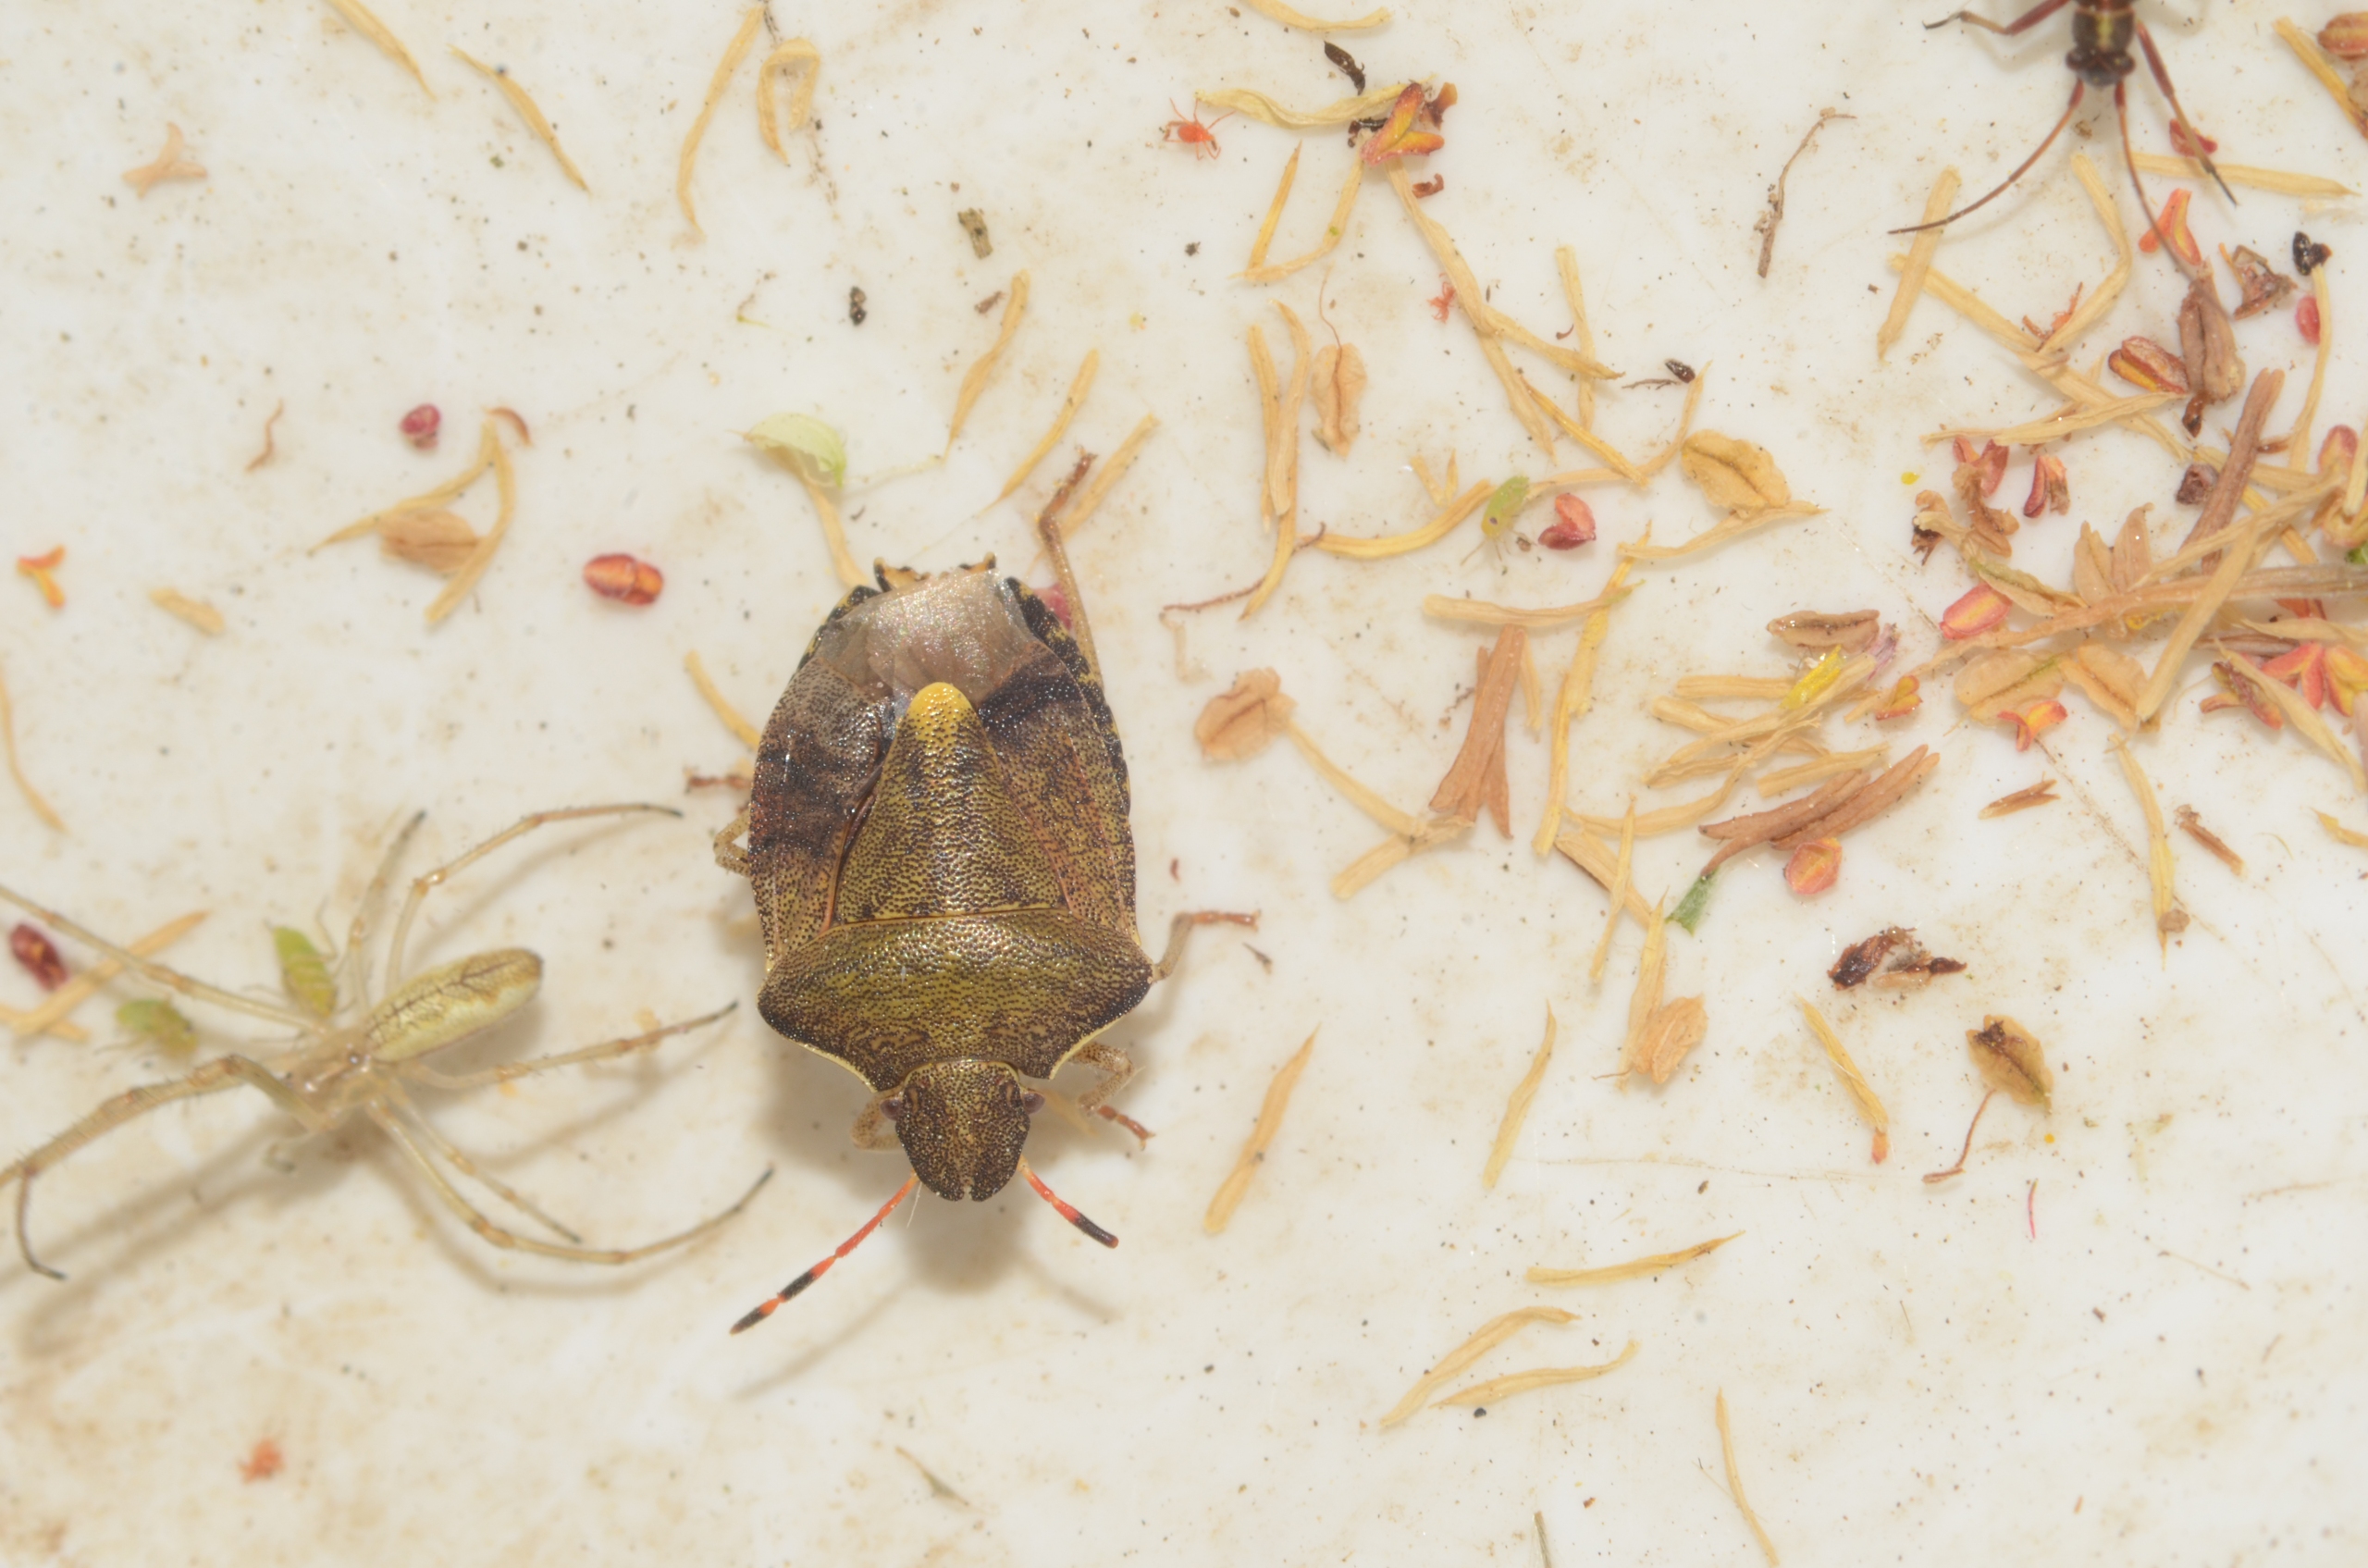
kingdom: Animalia
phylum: Arthropoda
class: Insecta
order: Hemiptera
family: Pentatomidae
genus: Holcostethus
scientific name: Holcostethus strictus
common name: Lille bærtæge
